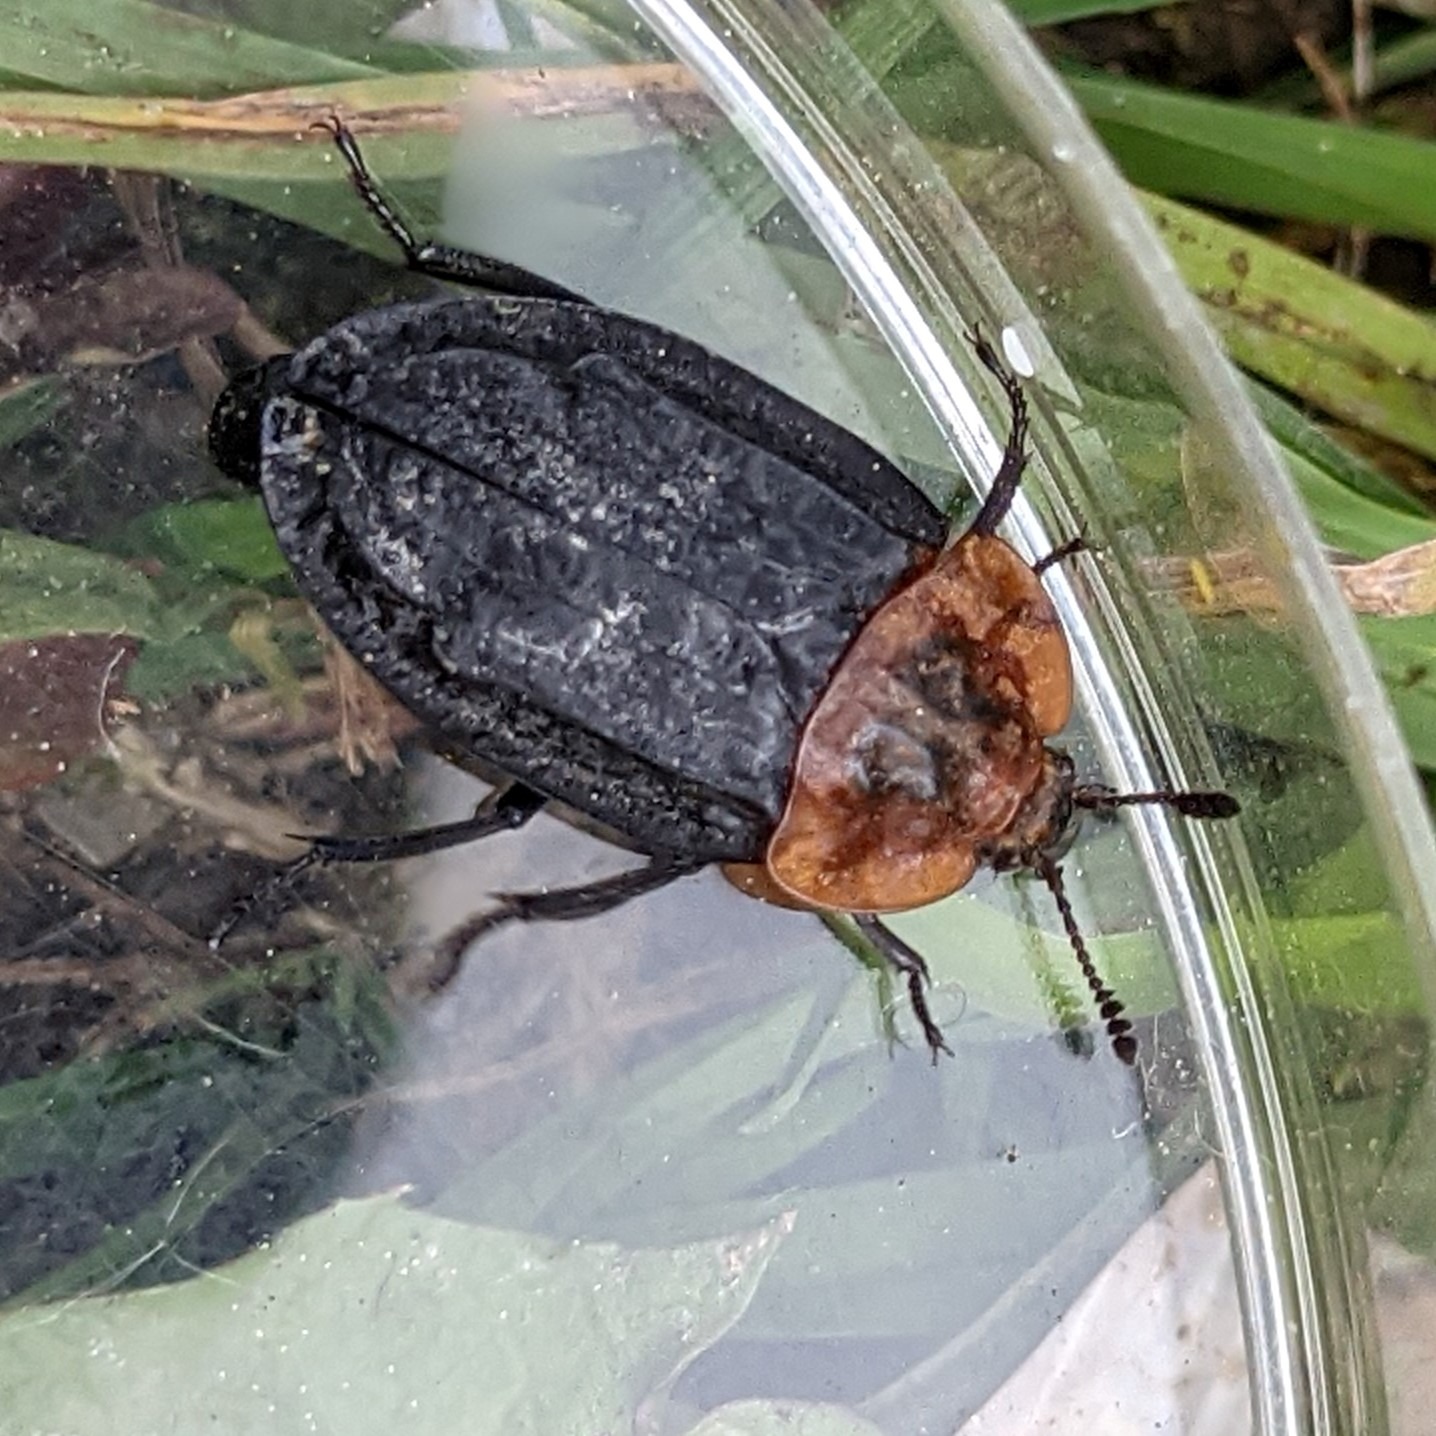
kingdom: Animalia
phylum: Arthropoda
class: Insecta
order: Coleoptera
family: Staphylinidae
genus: Oiceoptoma
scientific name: Oiceoptoma thoracicum
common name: Rødbrystet ådselbille
